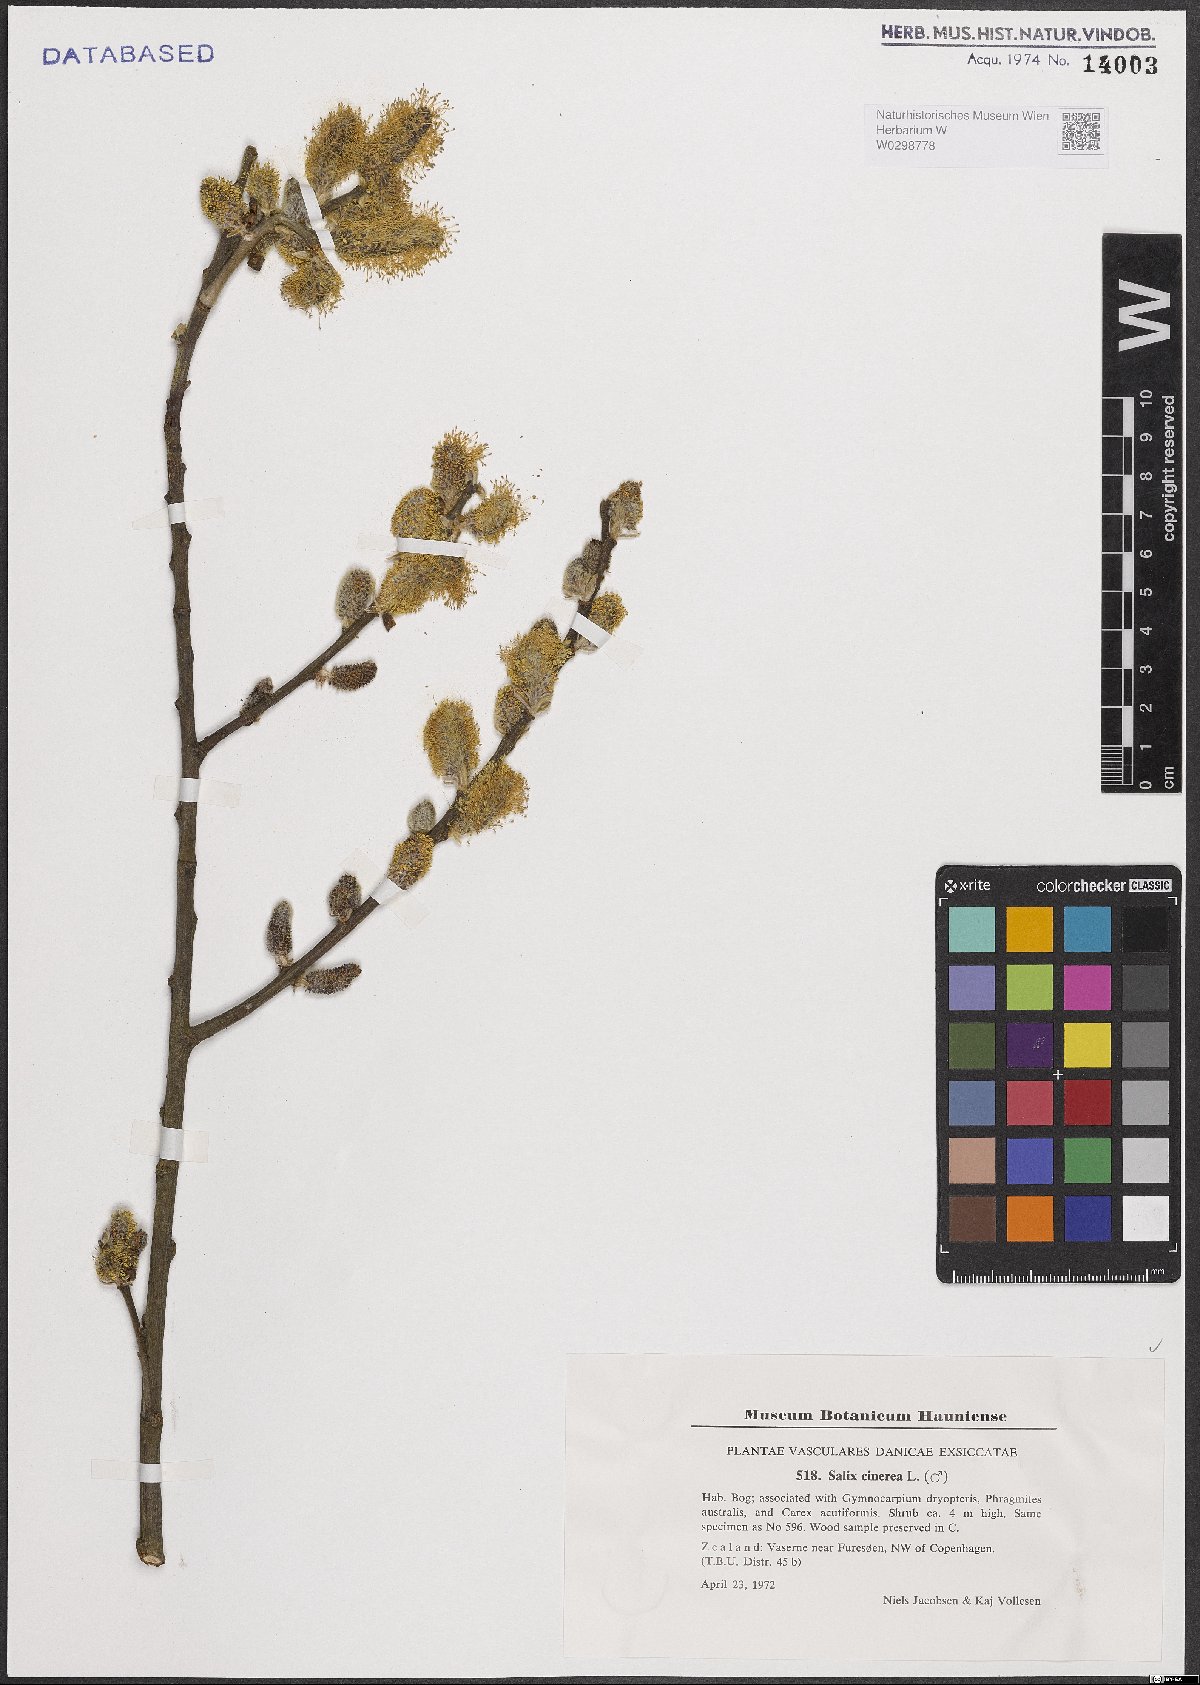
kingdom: Plantae
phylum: Tracheophyta
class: Magnoliopsida
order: Malpighiales
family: Salicaceae
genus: Salix
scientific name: Salix cinerea
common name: Common sallow
